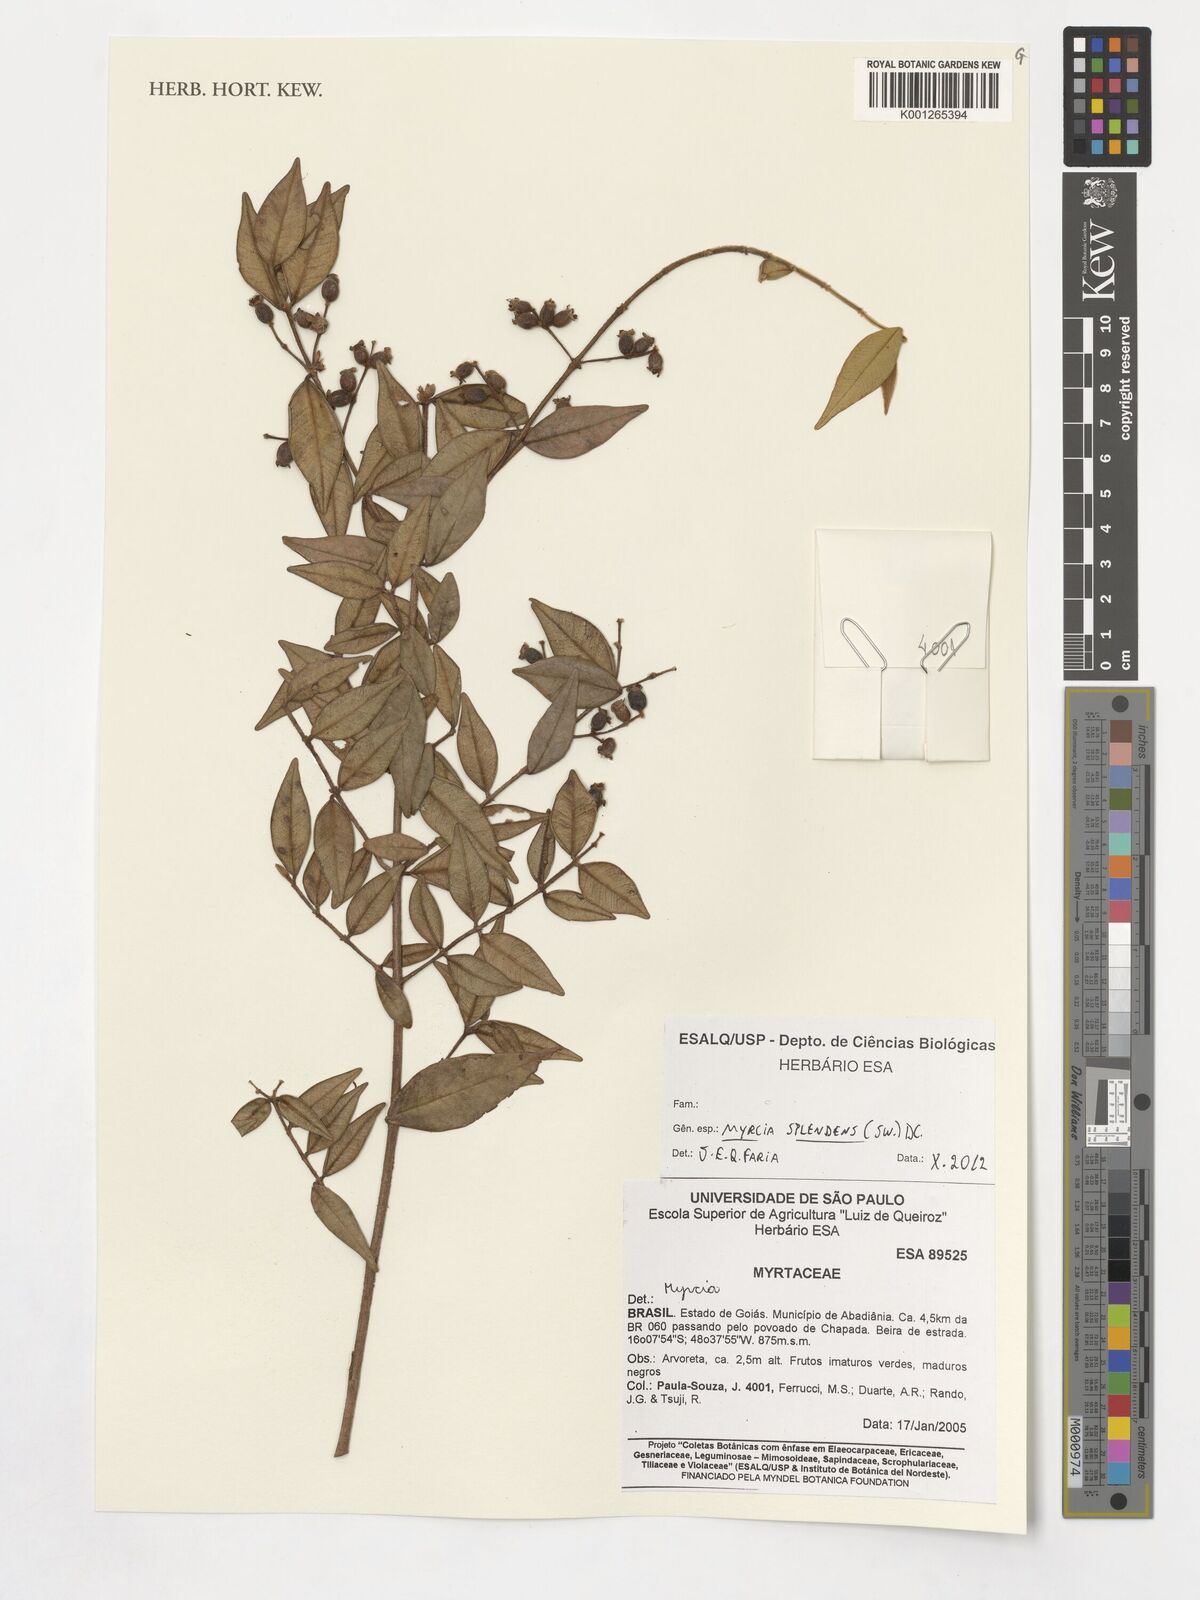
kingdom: Plantae
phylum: Tracheophyta
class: Magnoliopsida
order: Myrtales
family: Myrtaceae
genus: Myrcia
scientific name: Myrcia splendens
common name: Surinam cherry
